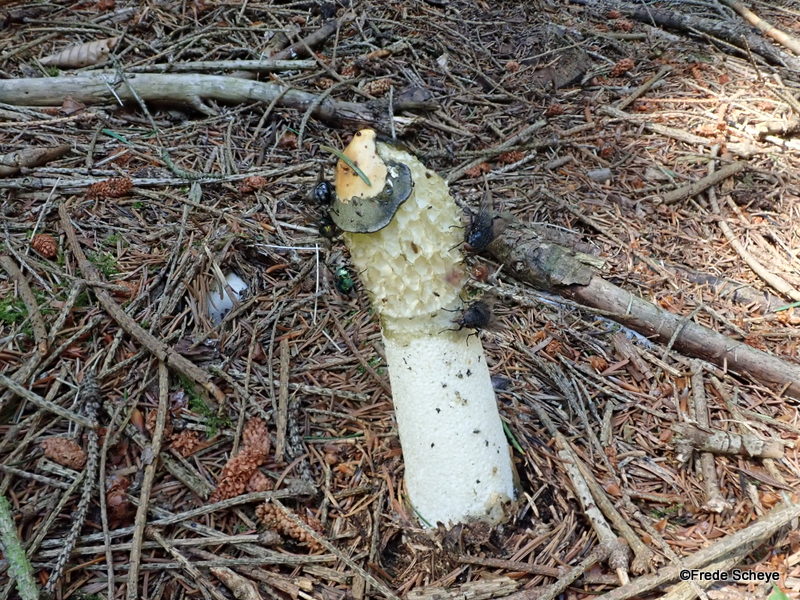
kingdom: Fungi
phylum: Basidiomycota
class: Agaricomycetes
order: Phallales
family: Phallaceae
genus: Phallus
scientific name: Phallus impudicus
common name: almindelig stinksvamp
